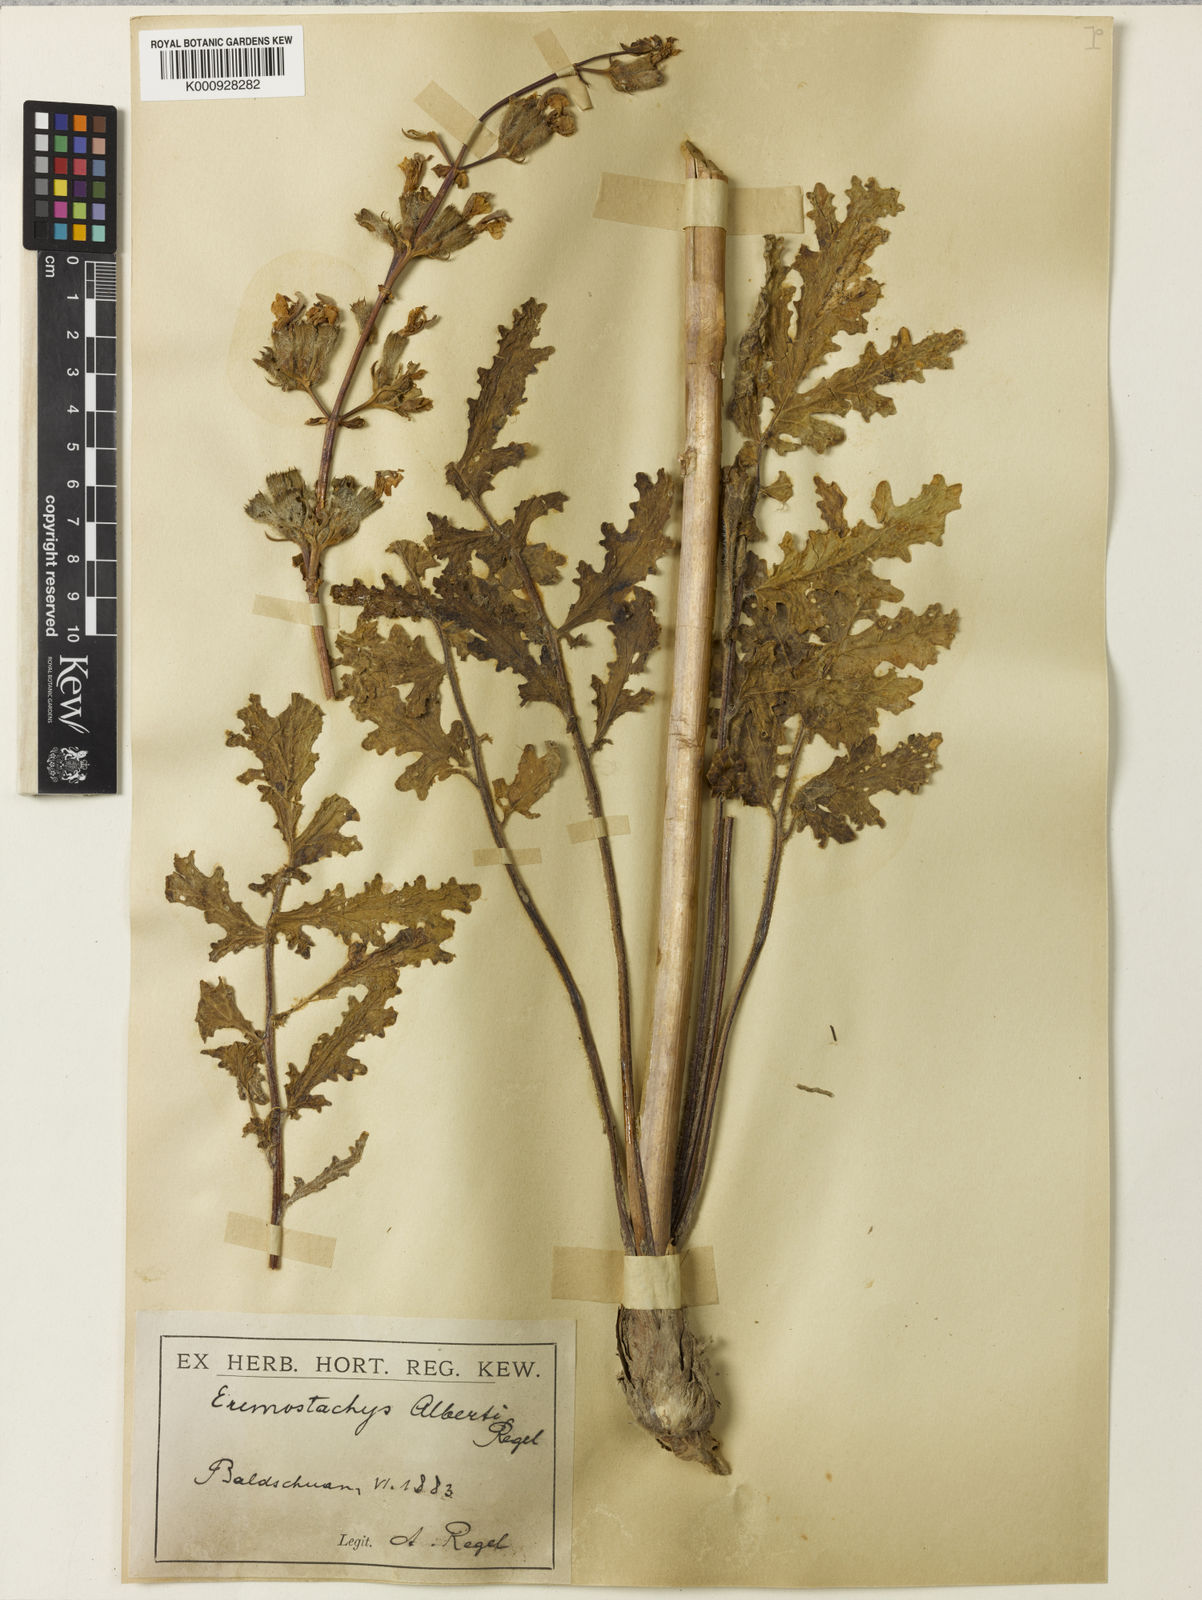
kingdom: Plantae
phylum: Tracheophyta
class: Magnoliopsida
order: Lamiales
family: Lamiaceae
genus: Phlomoides
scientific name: Phlomoides alberti
